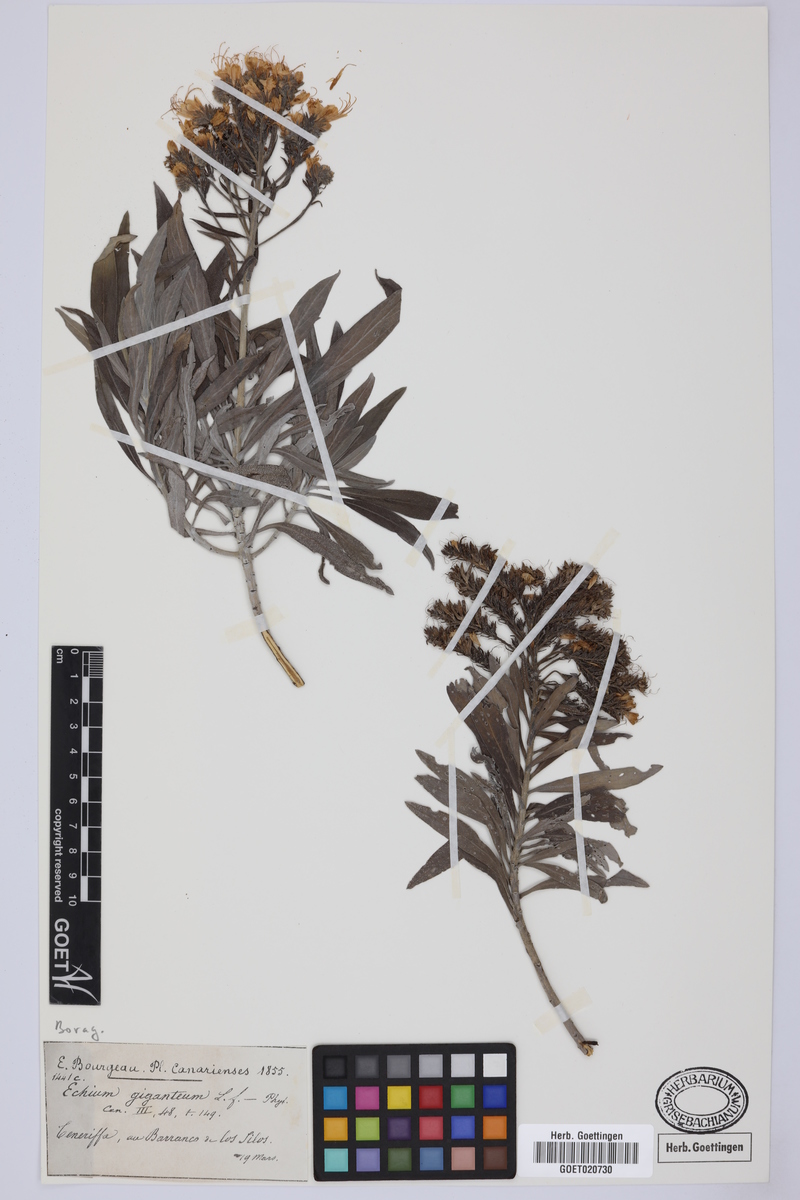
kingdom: Plantae
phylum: Tracheophyta
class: Magnoliopsida
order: Boraginales
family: Boraginaceae
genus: Echium
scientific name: Echium giganteum
